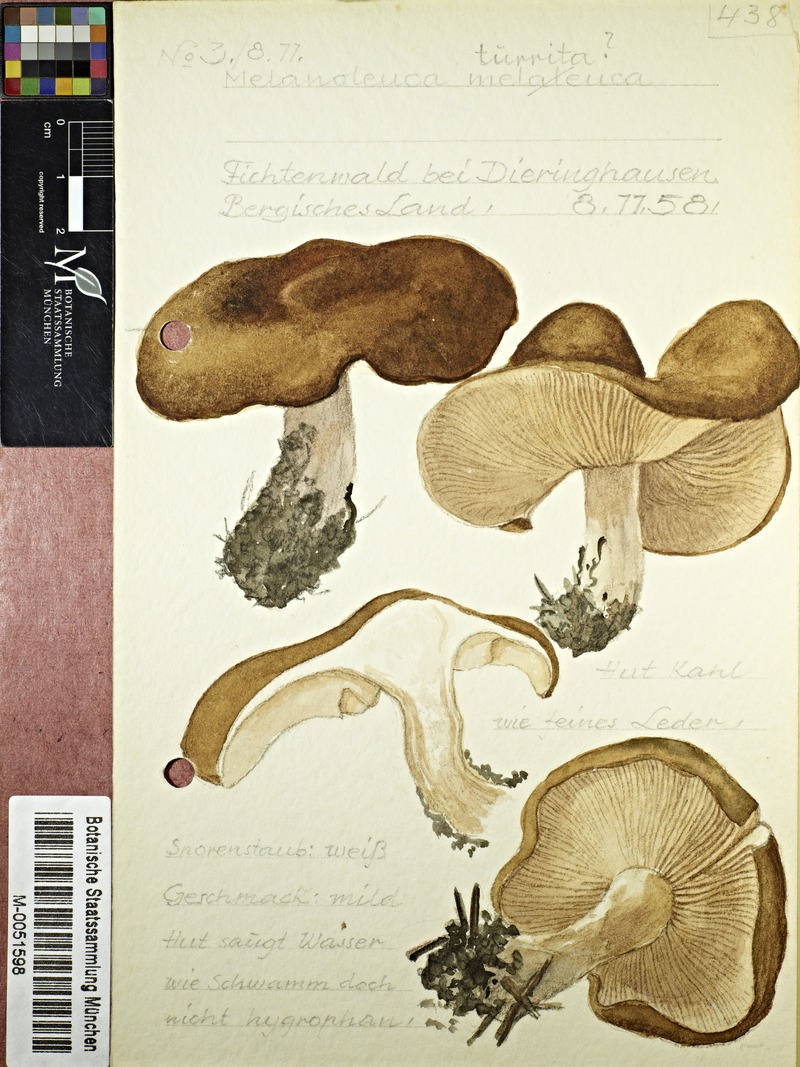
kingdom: Fungi
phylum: Basidiomycota
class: Agaricomycetes
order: Agaricales
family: Tricholomataceae
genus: Melanoleuca
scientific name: Melanoleuca turrita
